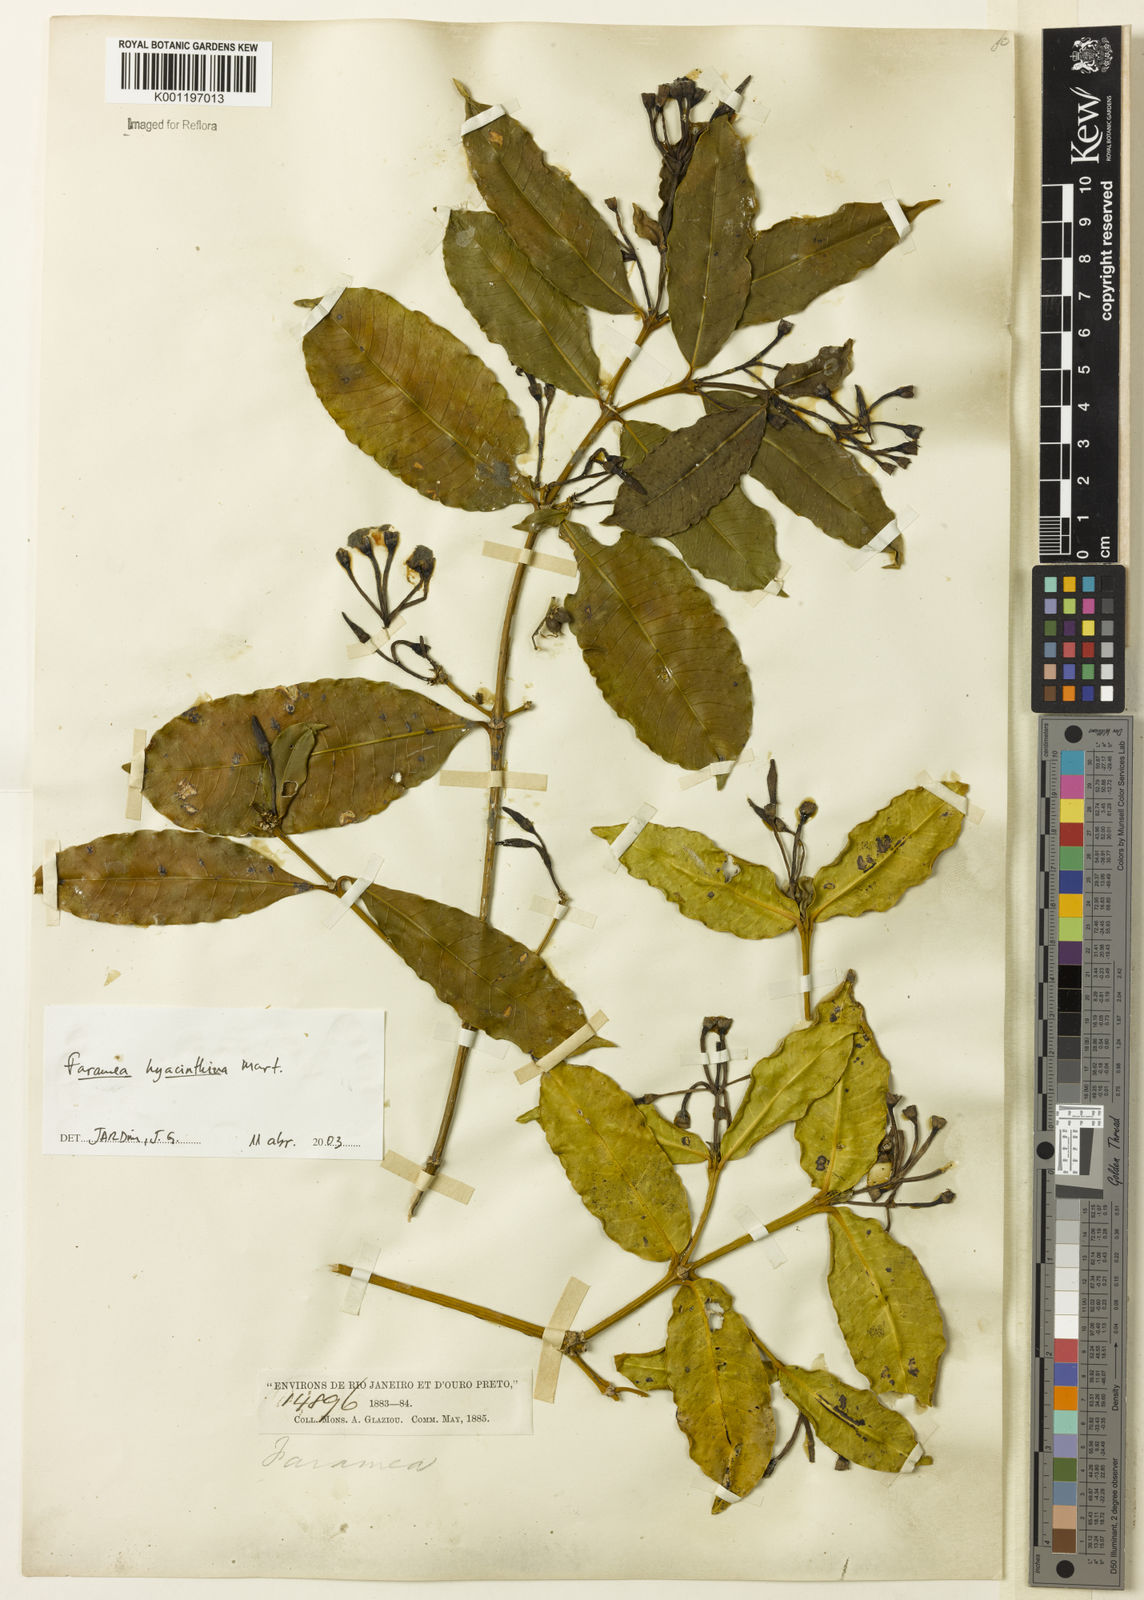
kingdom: Plantae
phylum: Tracheophyta
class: Magnoliopsida
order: Gentianales
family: Rubiaceae
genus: Faramea
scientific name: Faramea hyacinthina
